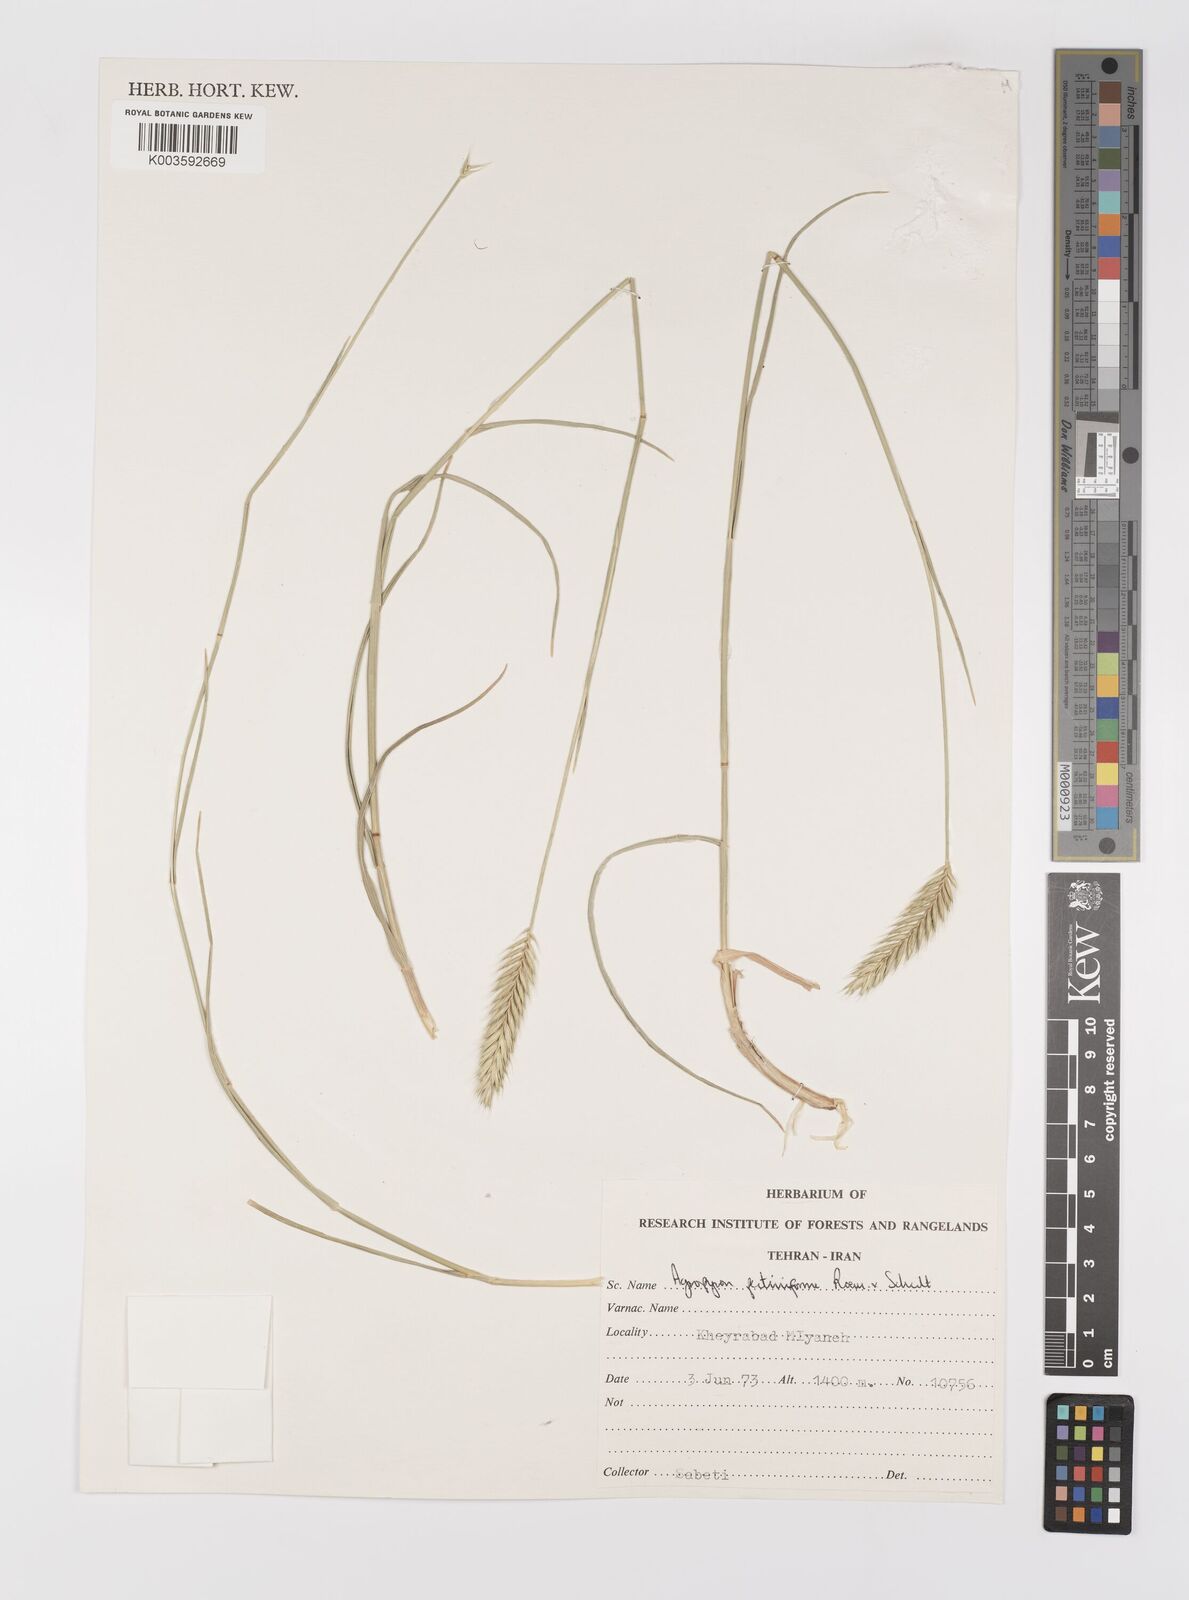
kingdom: Plantae
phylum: Tracheophyta
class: Liliopsida
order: Poales
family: Poaceae
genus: Agropyron
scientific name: Agropyron
